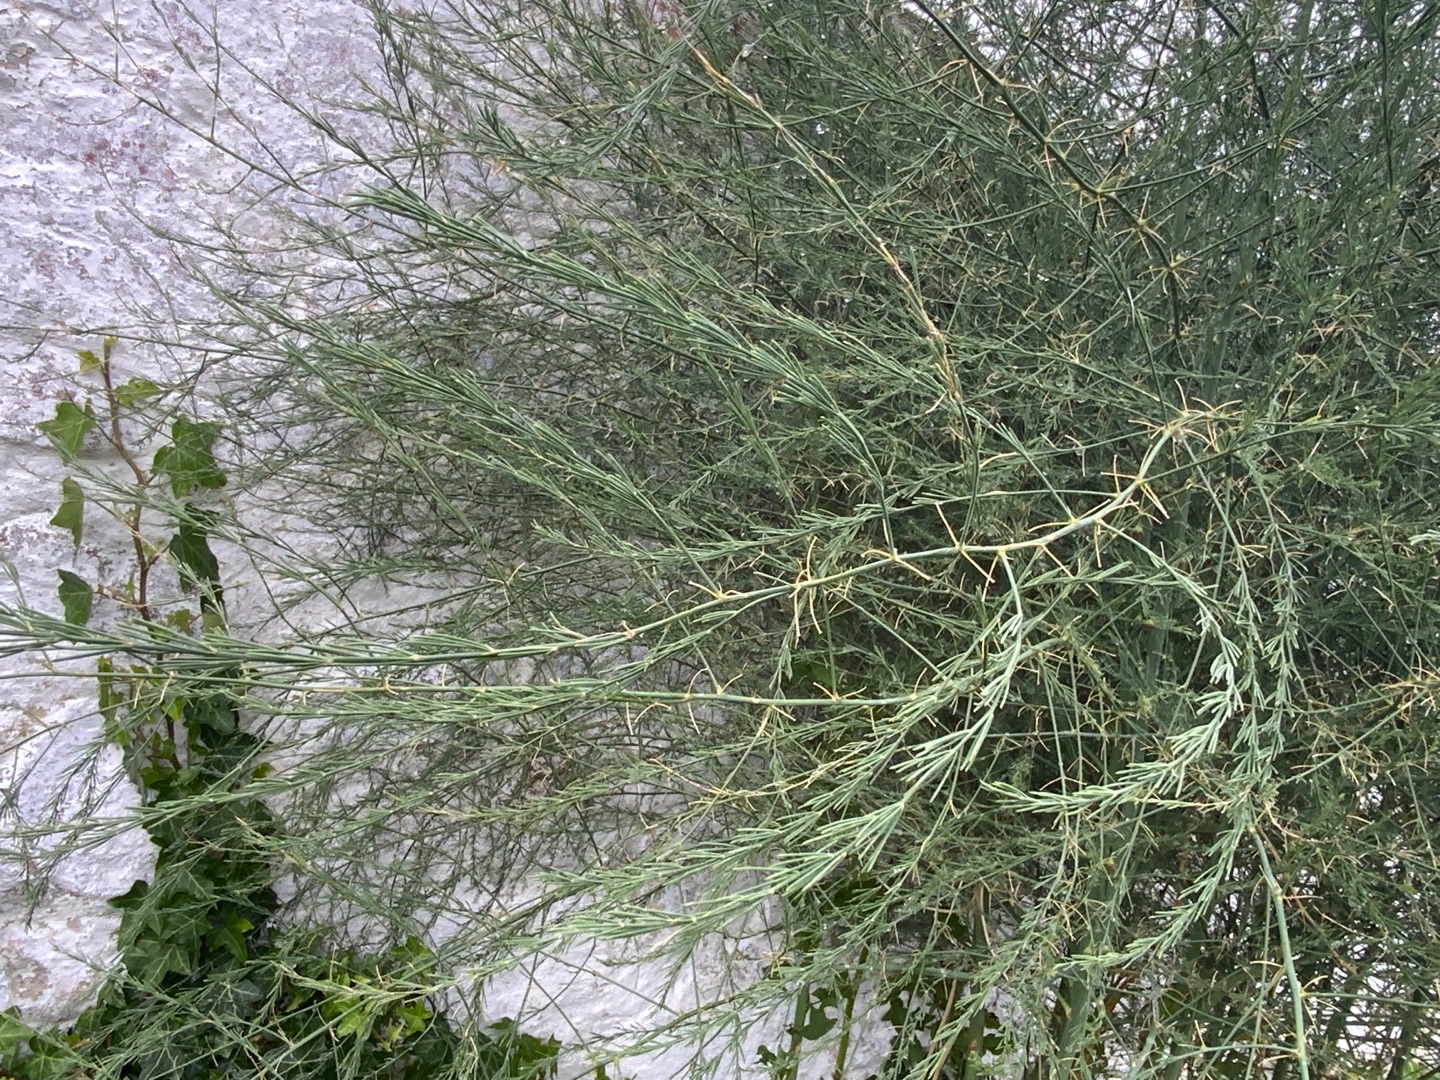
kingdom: Plantae
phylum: Tracheophyta
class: Liliopsida
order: Asparagales
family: Asparagaceae
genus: Asparagus
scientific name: Asparagus officinalis
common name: Asparges
